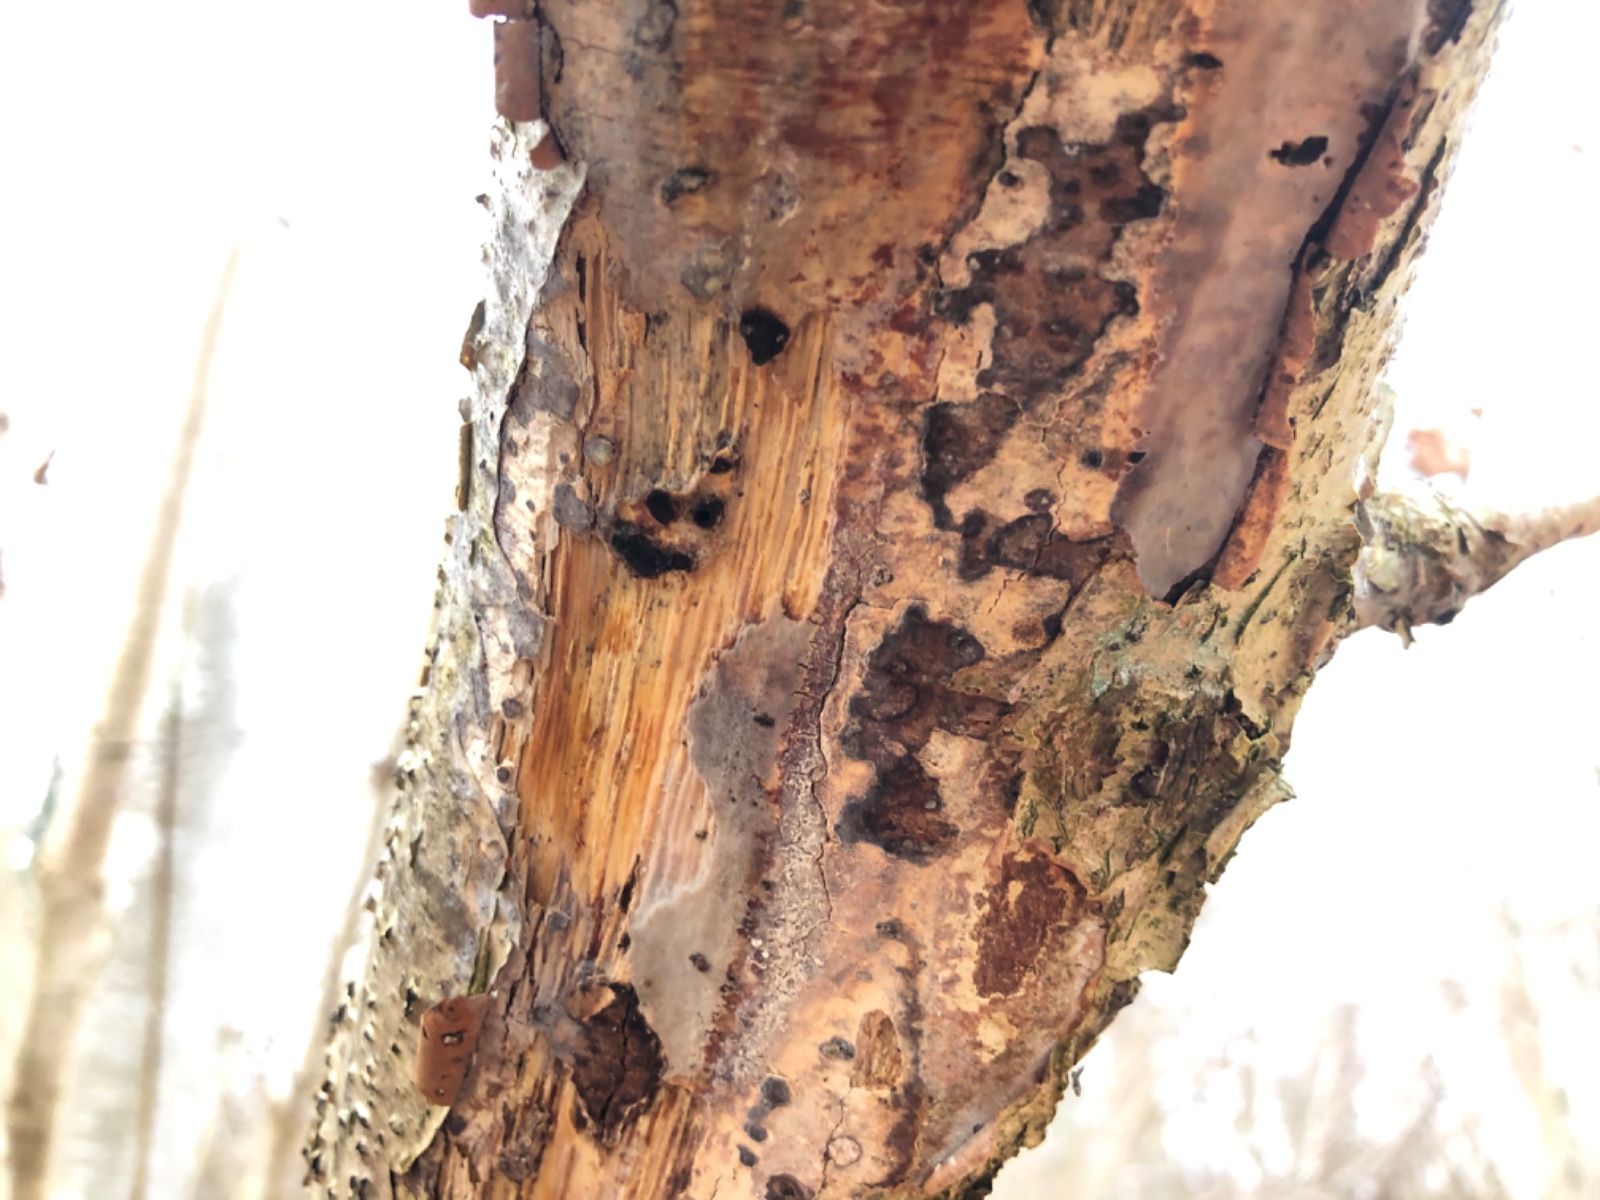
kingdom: Fungi
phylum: Basidiomycota
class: Agaricomycetes
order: Corticiales
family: Vuilleminiaceae
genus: Vuilleminia
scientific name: Vuilleminia coryli
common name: hassel-barksprænger
